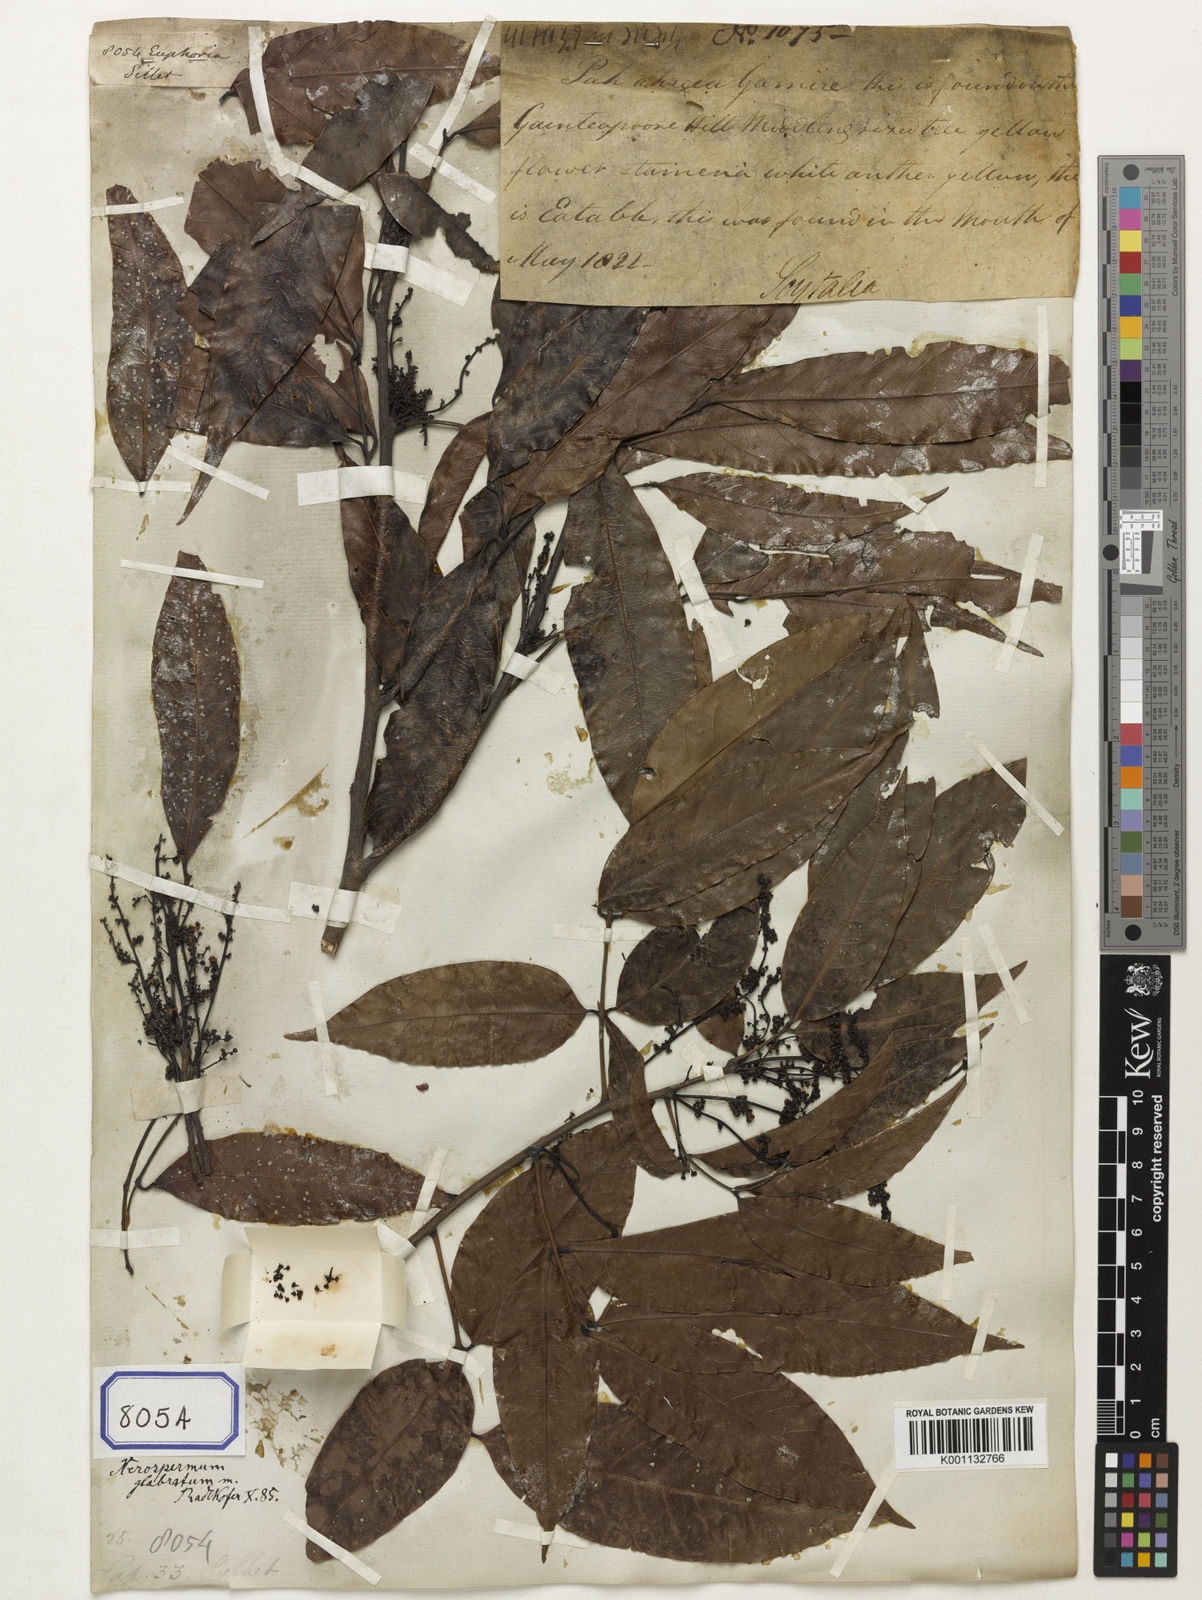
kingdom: Animalia
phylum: Arthropoda
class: Insecta
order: Coleoptera
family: Scarabaeidae
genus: Euphoria
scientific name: Euphoria
